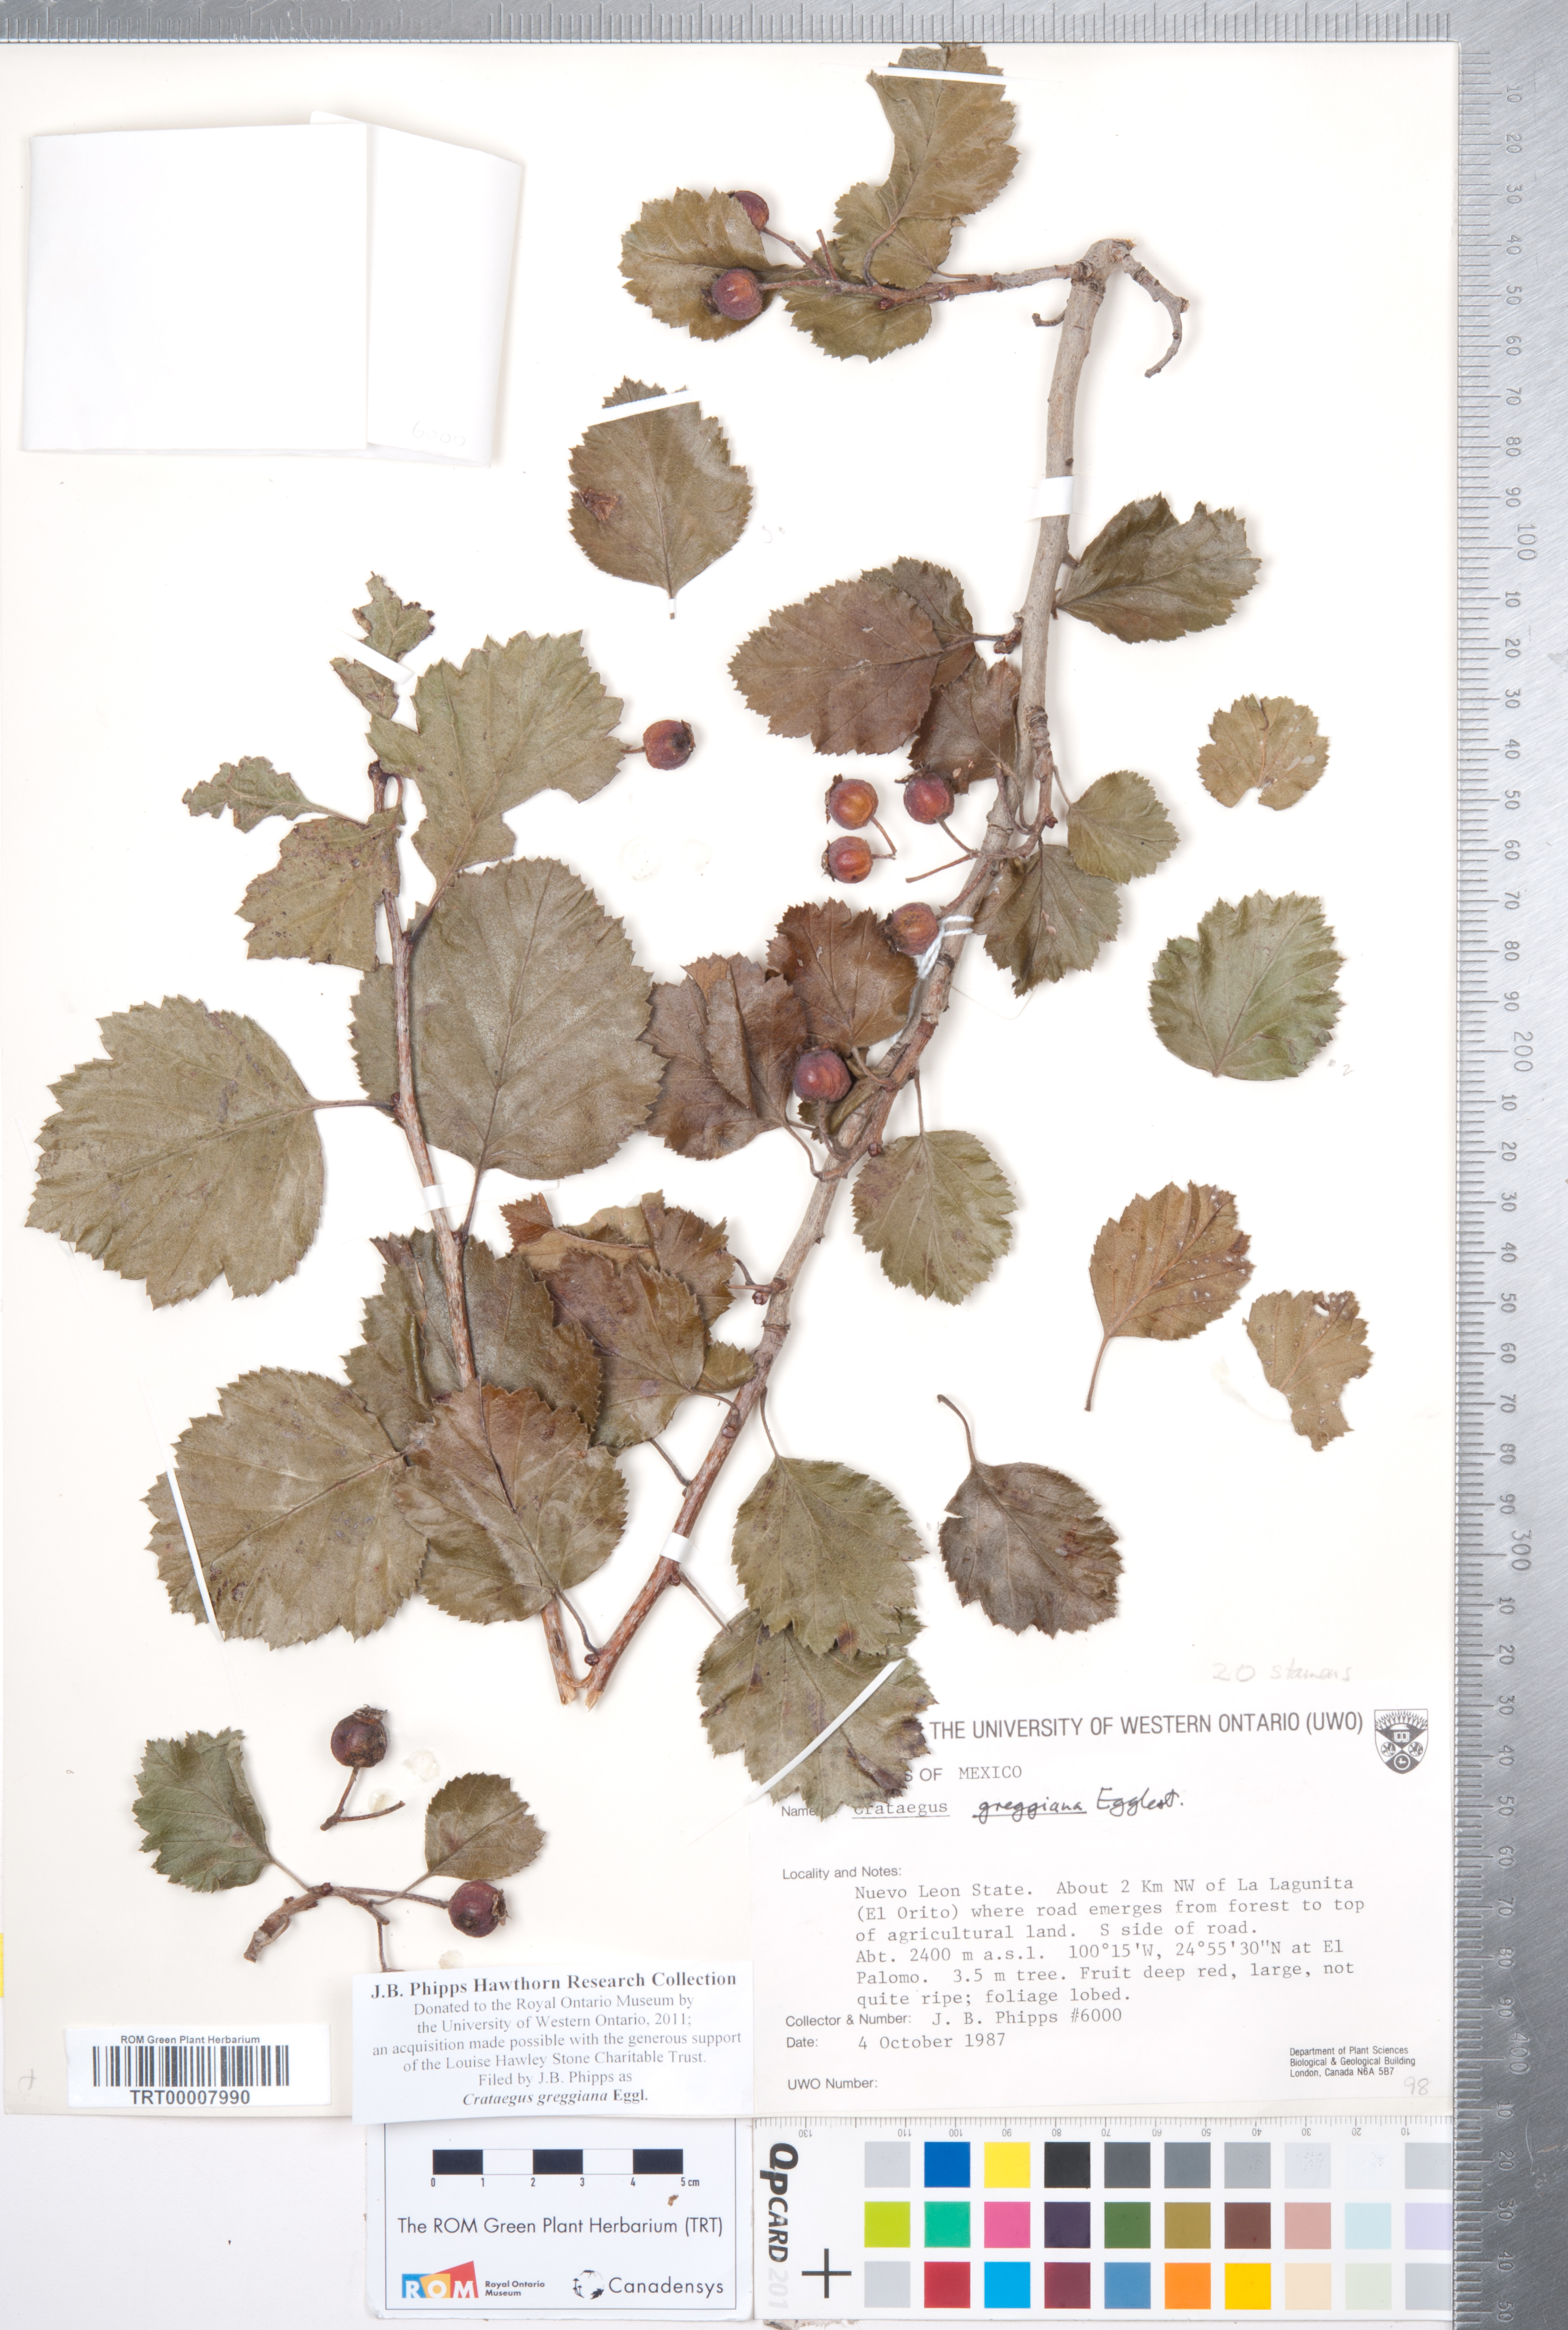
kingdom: Plantae
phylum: Tracheophyta
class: Magnoliopsida
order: Rosales
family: Rosaceae
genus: Crataegus
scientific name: Crataegus greggiana
